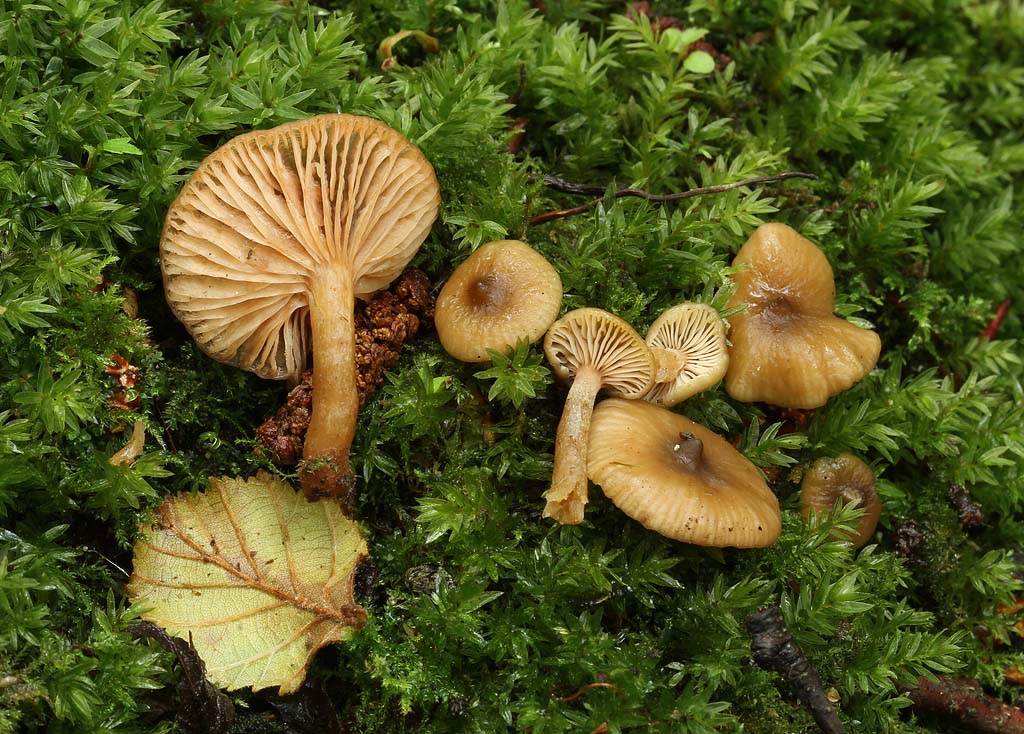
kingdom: Fungi
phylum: Basidiomycota
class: Agaricomycetes
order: Russulales
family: Russulaceae
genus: Lactarius
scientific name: Lactarius obscuratus
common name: elle-mælkehat
